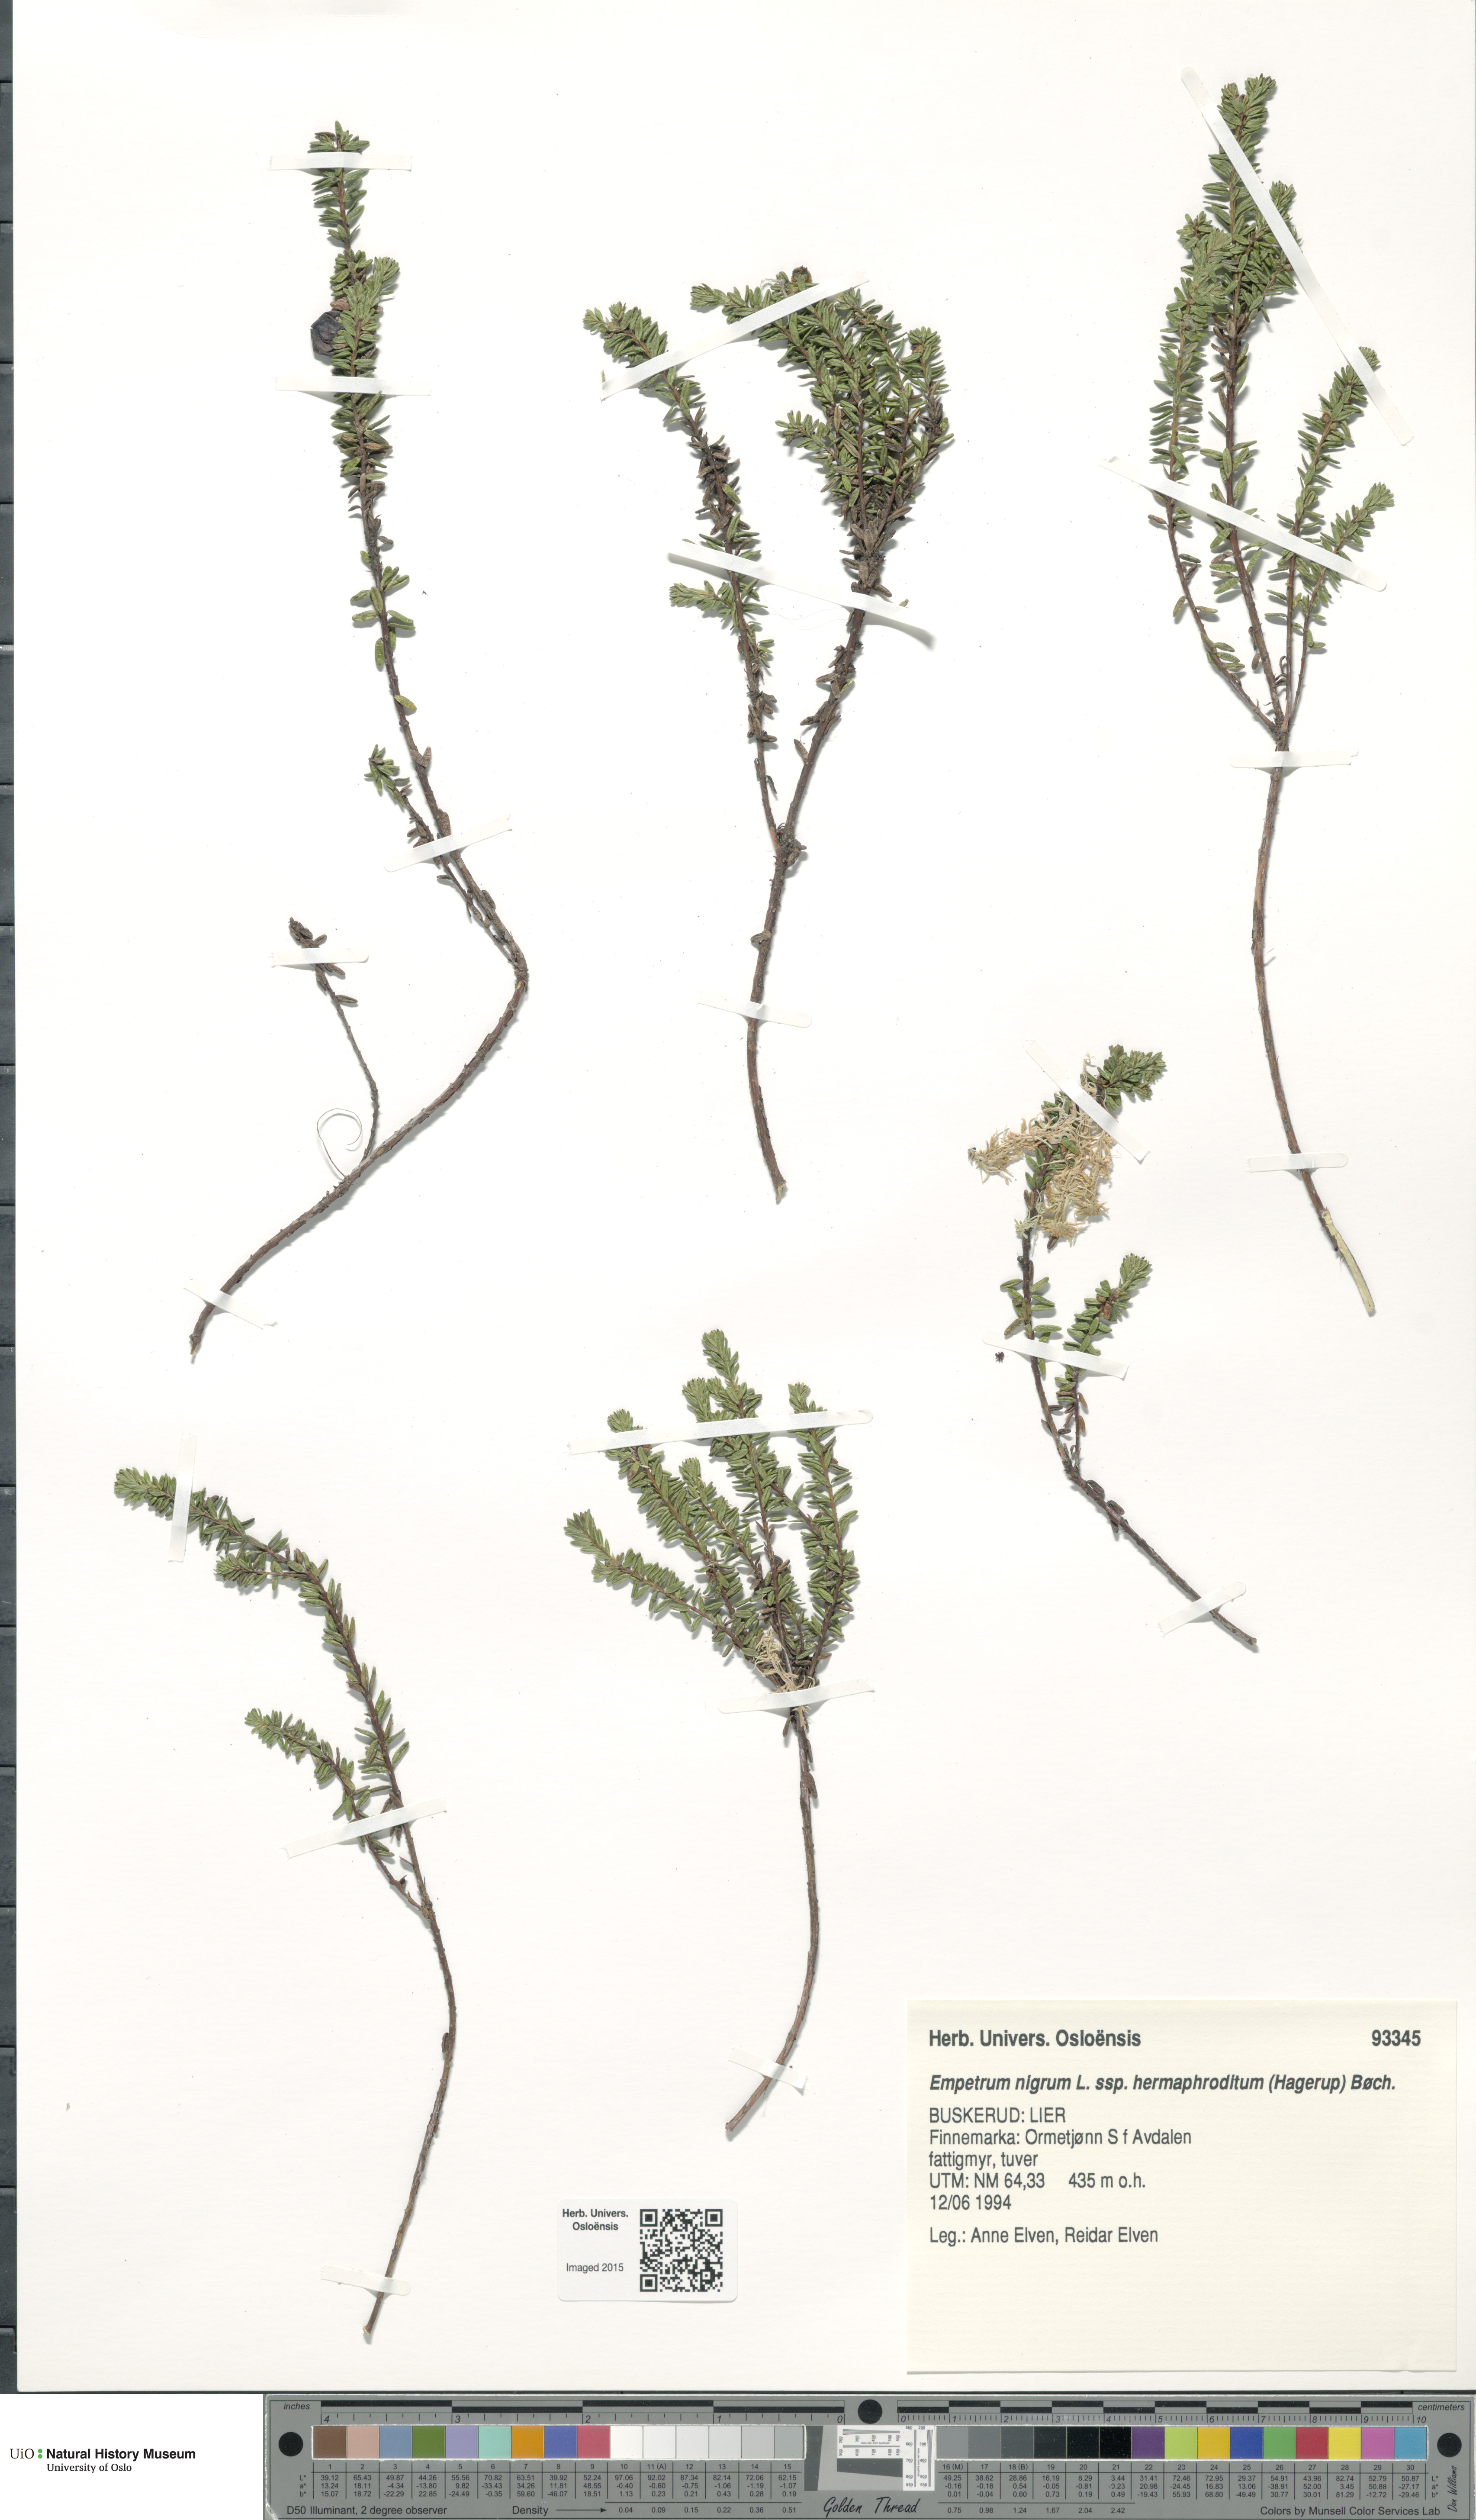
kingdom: Plantae
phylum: Tracheophyta
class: Magnoliopsida
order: Ericales
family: Ericaceae
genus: Empetrum
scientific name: Empetrum hermaphroditum
